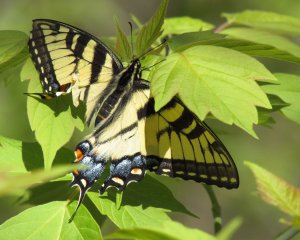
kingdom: Animalia
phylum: Arthropoda
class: Insecta
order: Lepidoptera
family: Papilionidae
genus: Pterourus
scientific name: Pterourus glaucus
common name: Eastern Tiger Swallowtail
